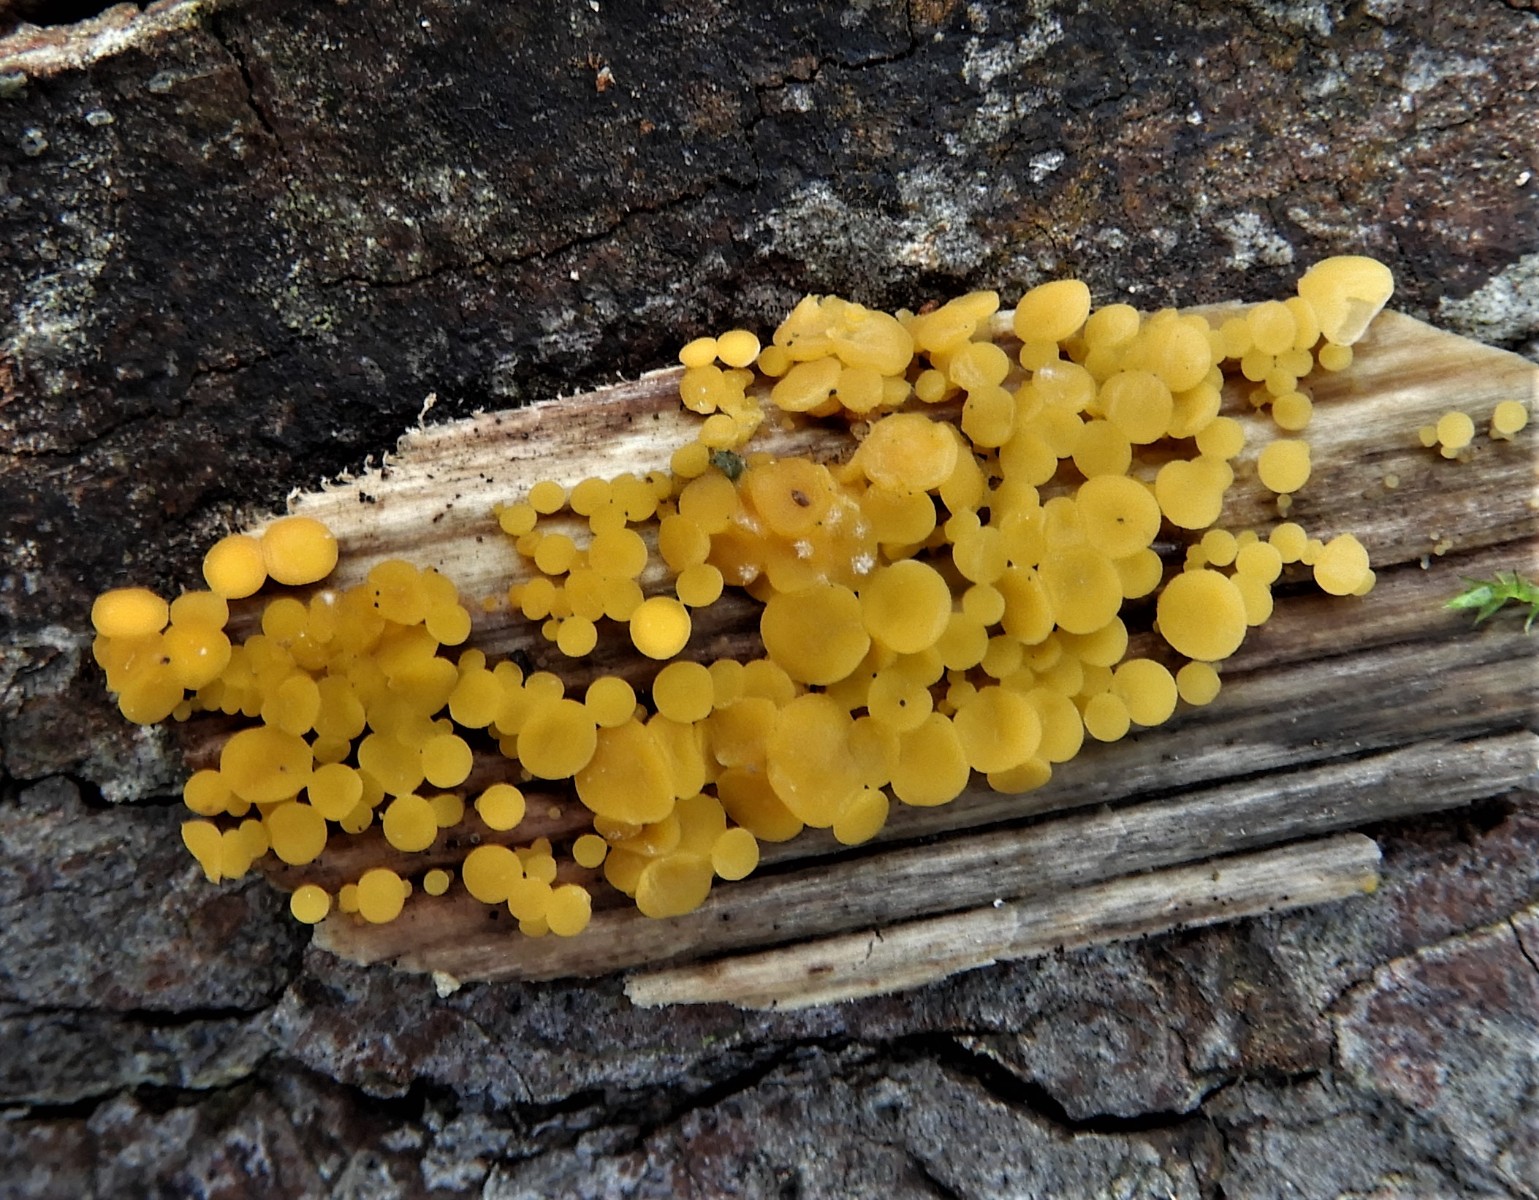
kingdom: Fungi
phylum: Ascomycota
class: Leotiomycetes
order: Helotiales
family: Pezizellaceae
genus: Calycina
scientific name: Calycina citrina
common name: almindelig gulskive
